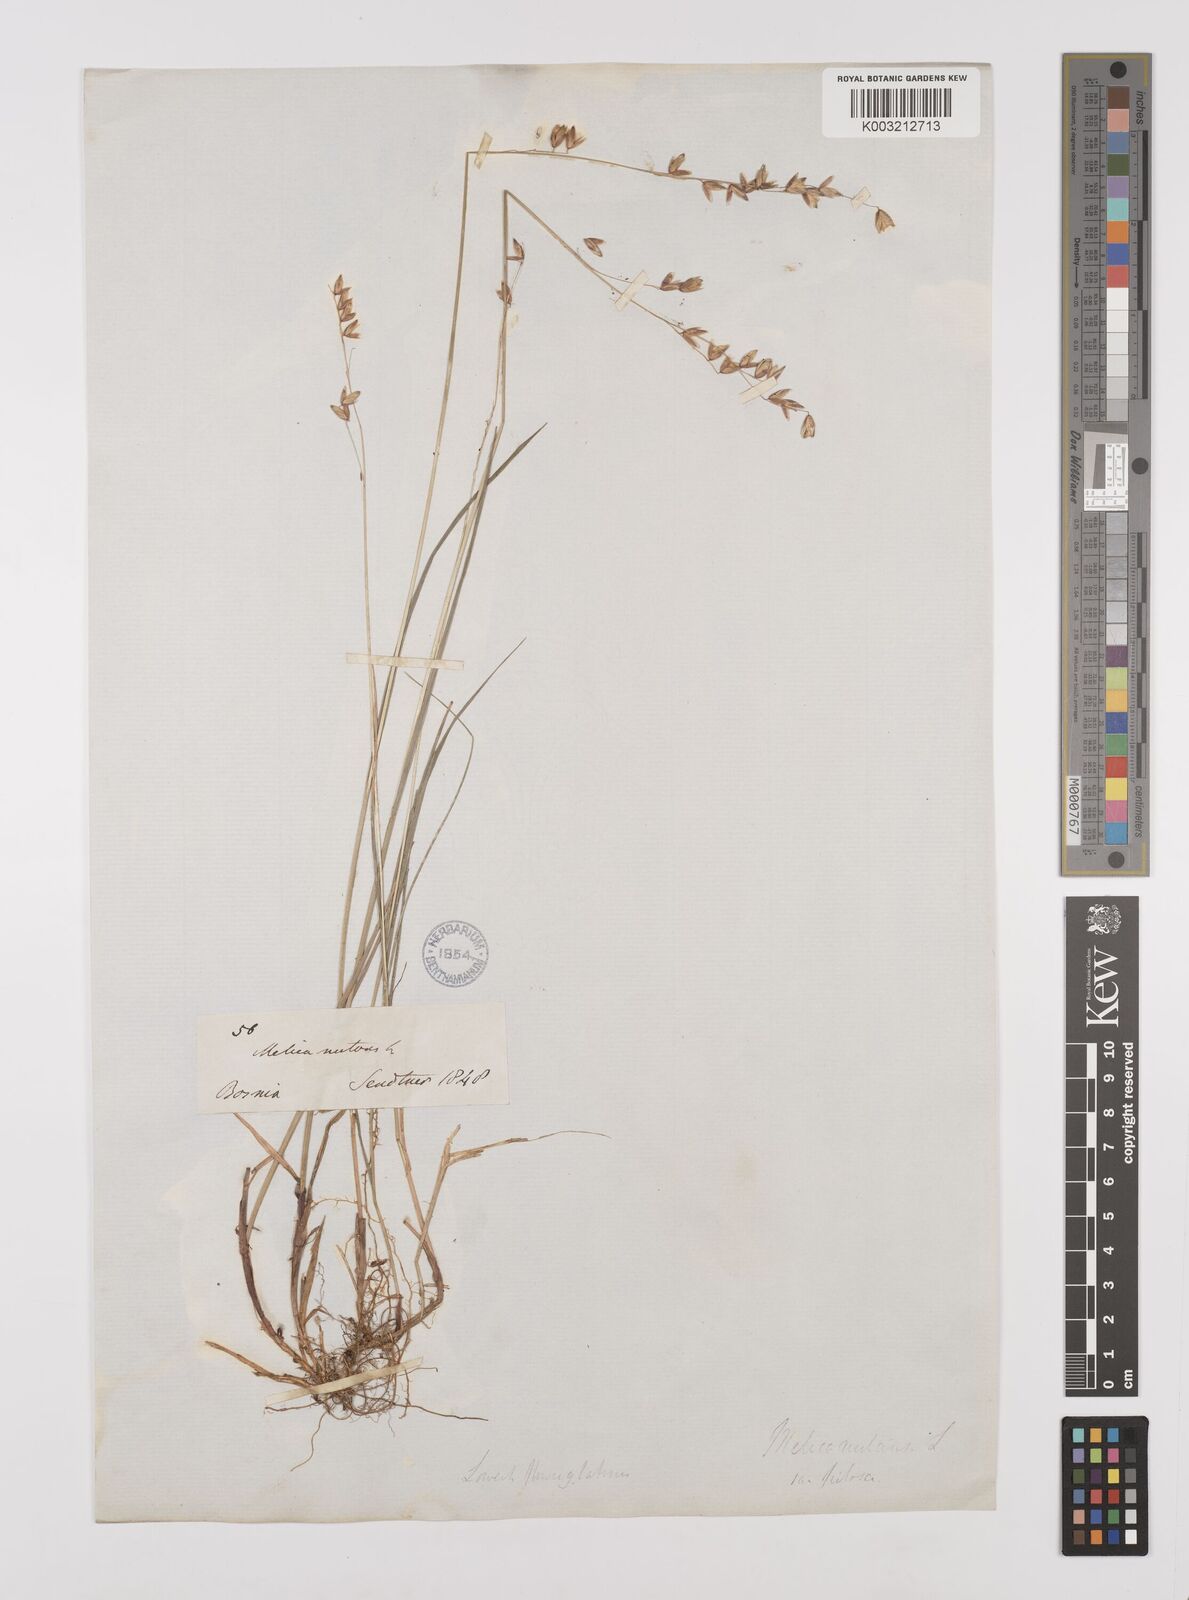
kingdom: Plantae
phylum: Tracheophyta
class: Liliopsida
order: Poales
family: Poaceae
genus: Melica
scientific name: Melica nutans
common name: Mountain melick
